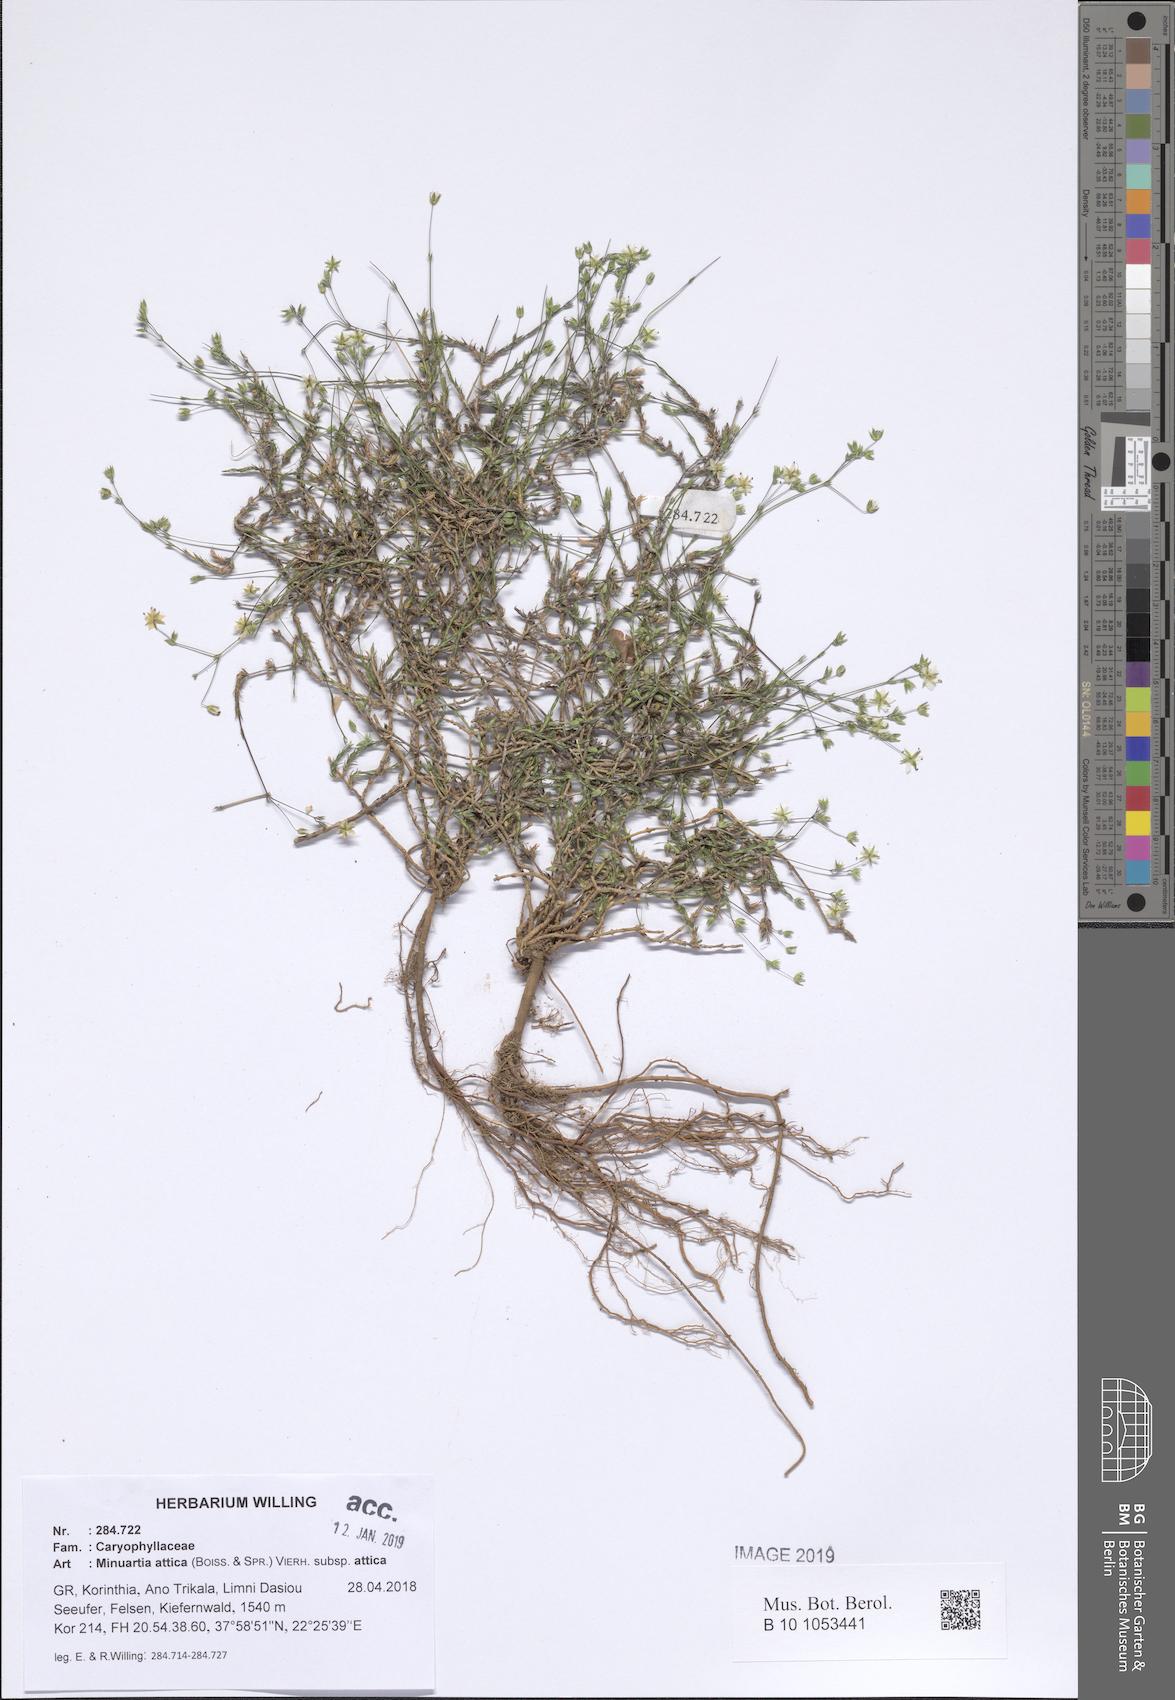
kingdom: Plantae
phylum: Tracheophyta
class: Magnoliopsida
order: Caryophyllales
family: Caryophyllaceae
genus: Sabulina
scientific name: Sabulina attica
